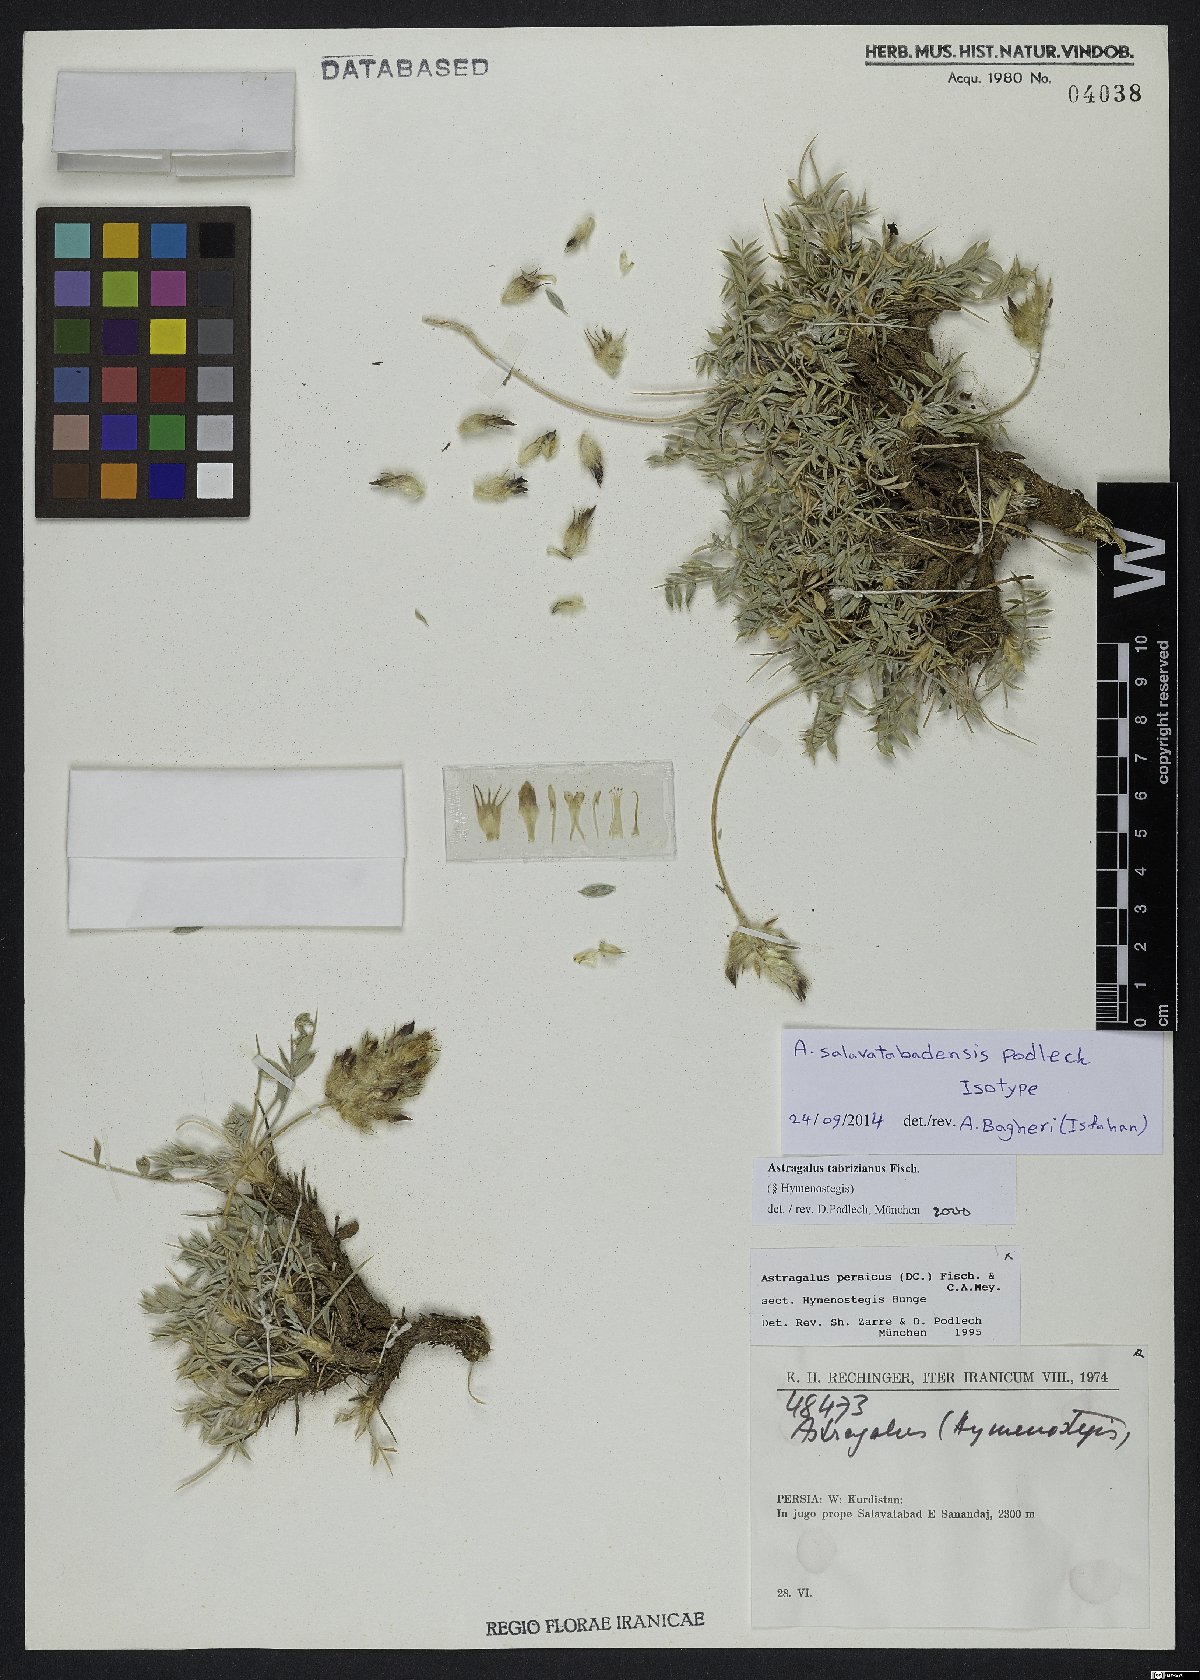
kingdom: Plantae
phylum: Tracheophyta
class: Magnoliopsida
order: Fabales
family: Fabaceae
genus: Astragalus
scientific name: Astragalus salavatabadensis
